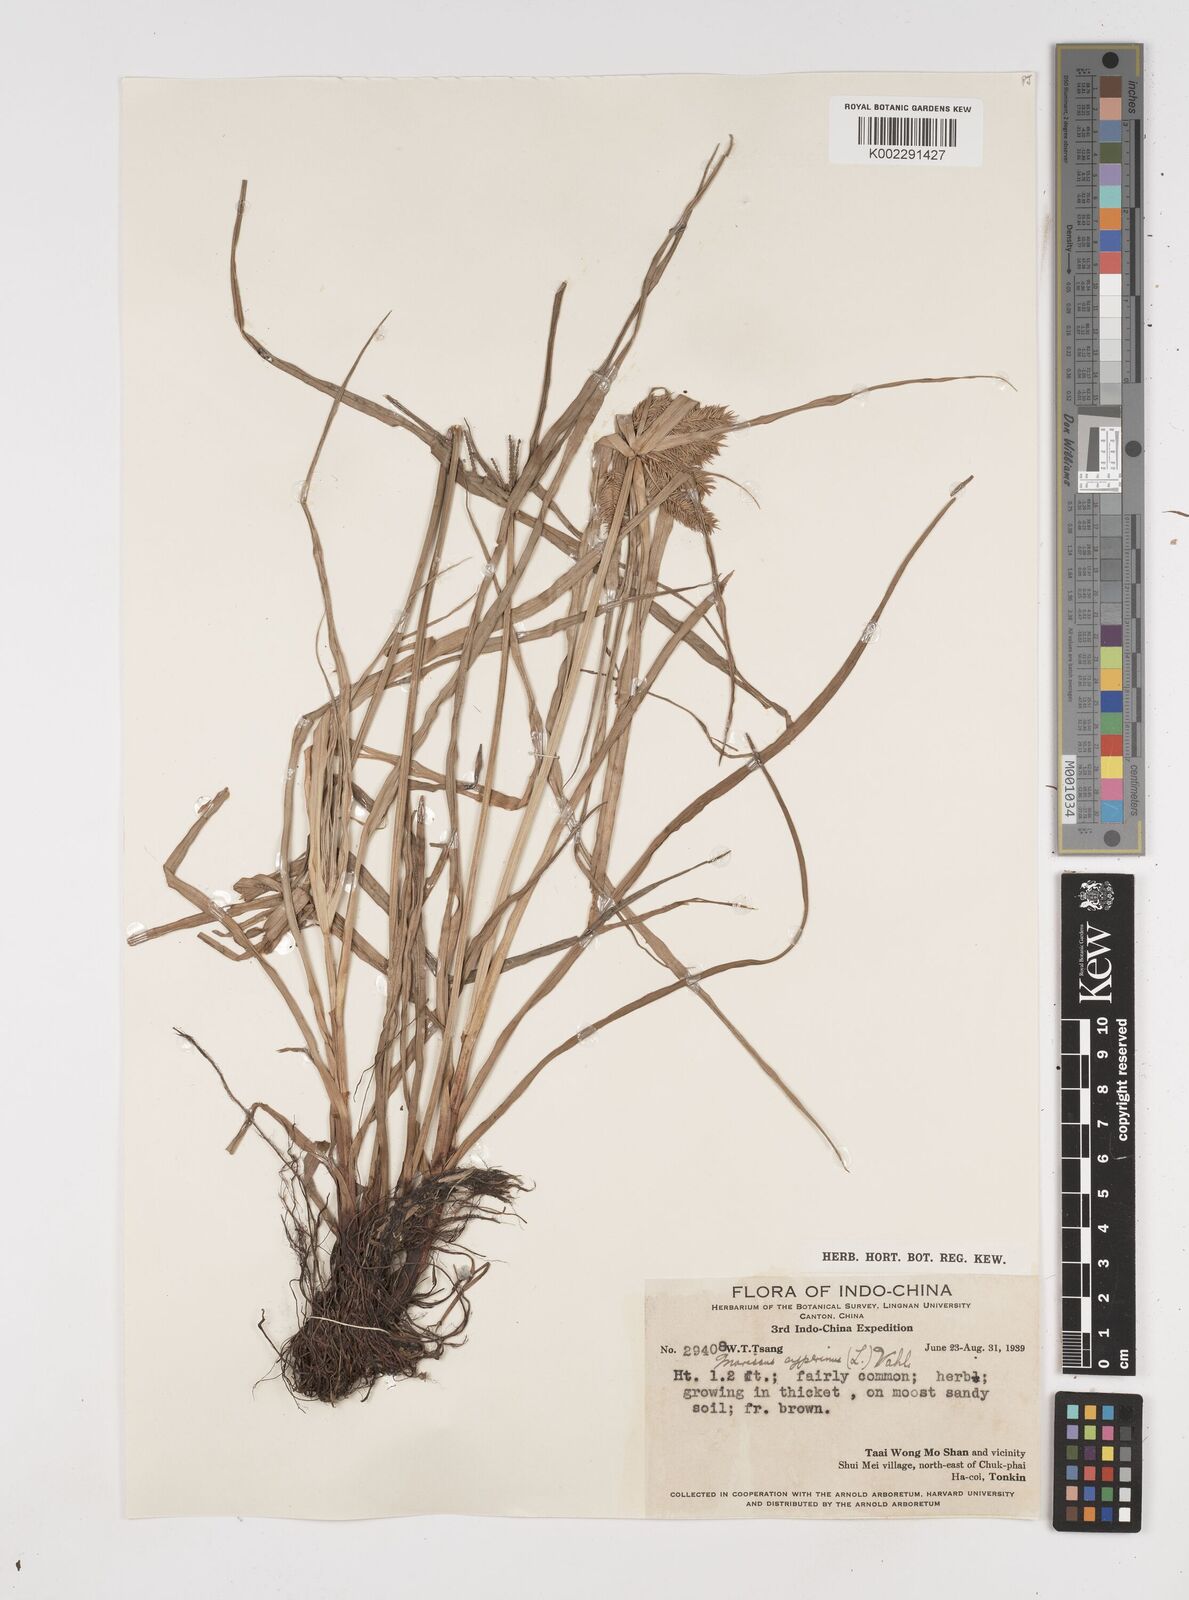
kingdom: Plantae
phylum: Tracheophyta
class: Liliopsida
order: Poales
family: Cyperaceae
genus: Cyperus
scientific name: Cyperus cyperinus
